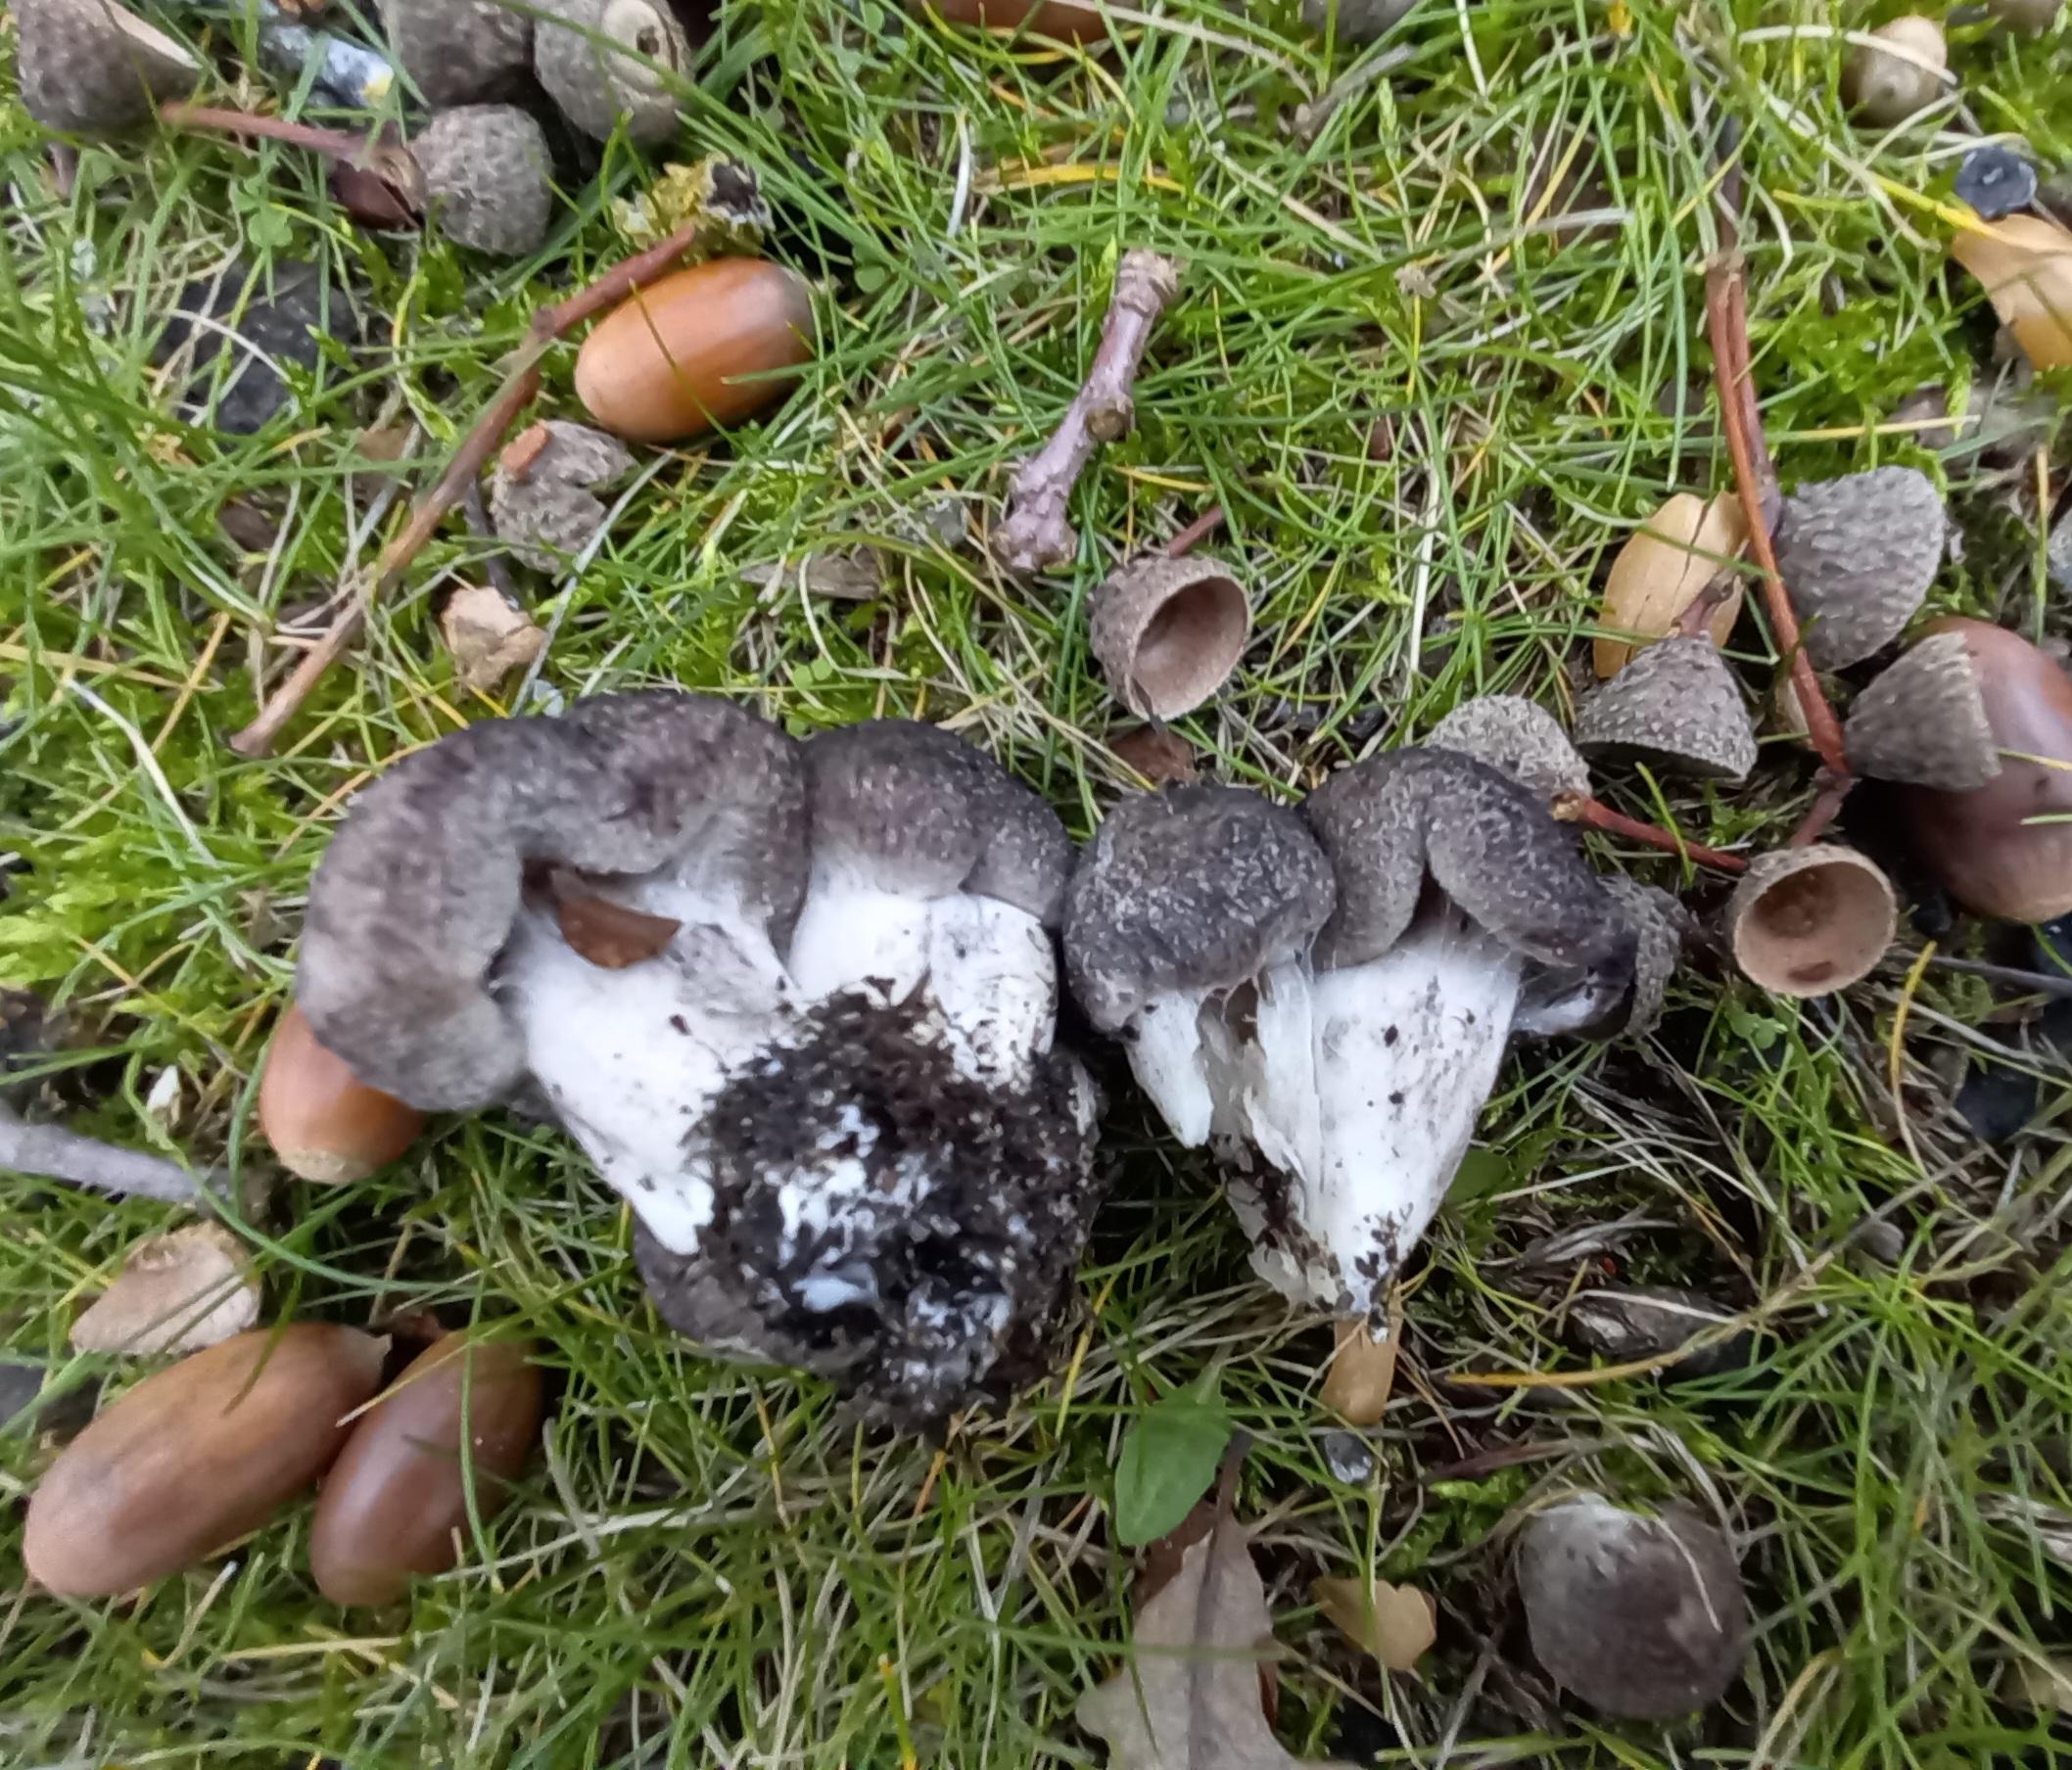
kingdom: Fungi
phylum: Basidiomycota
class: Agaricomycetes
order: Agaricales
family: Tricholomataceae
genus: Tricholoma
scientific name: Tricholoma scalpturatum
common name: gulplettet ridderhat
